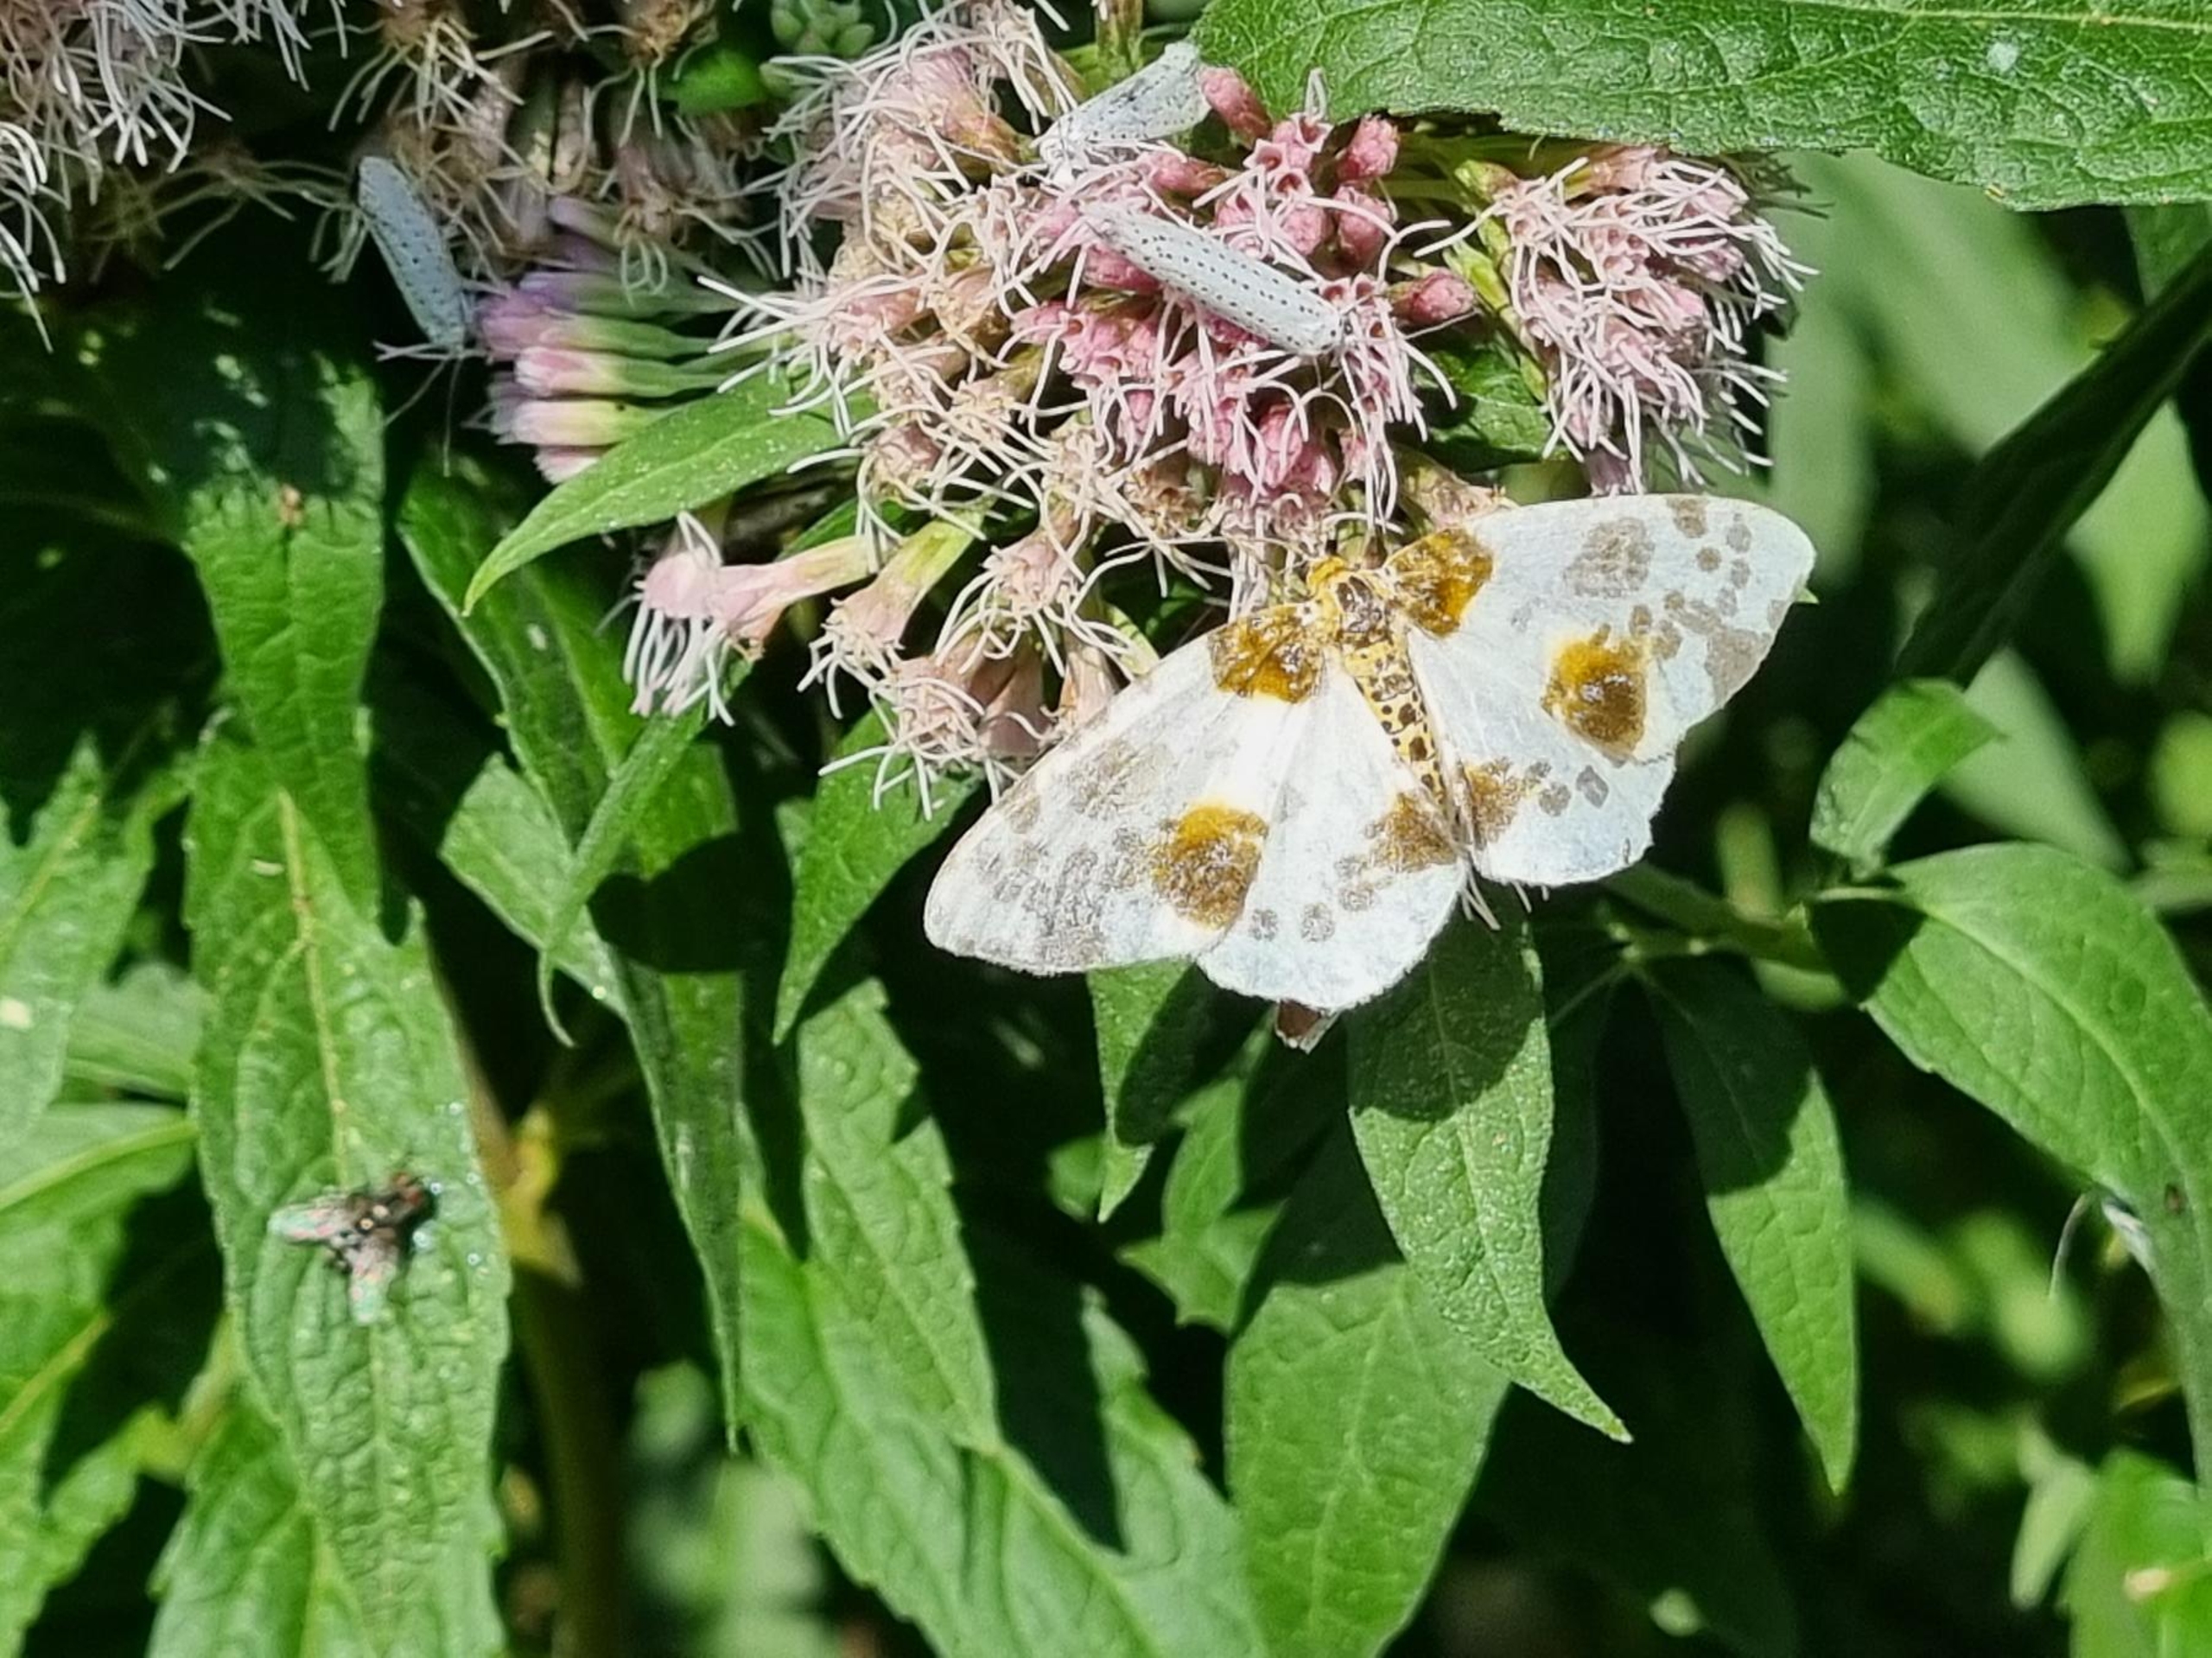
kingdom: Animalia
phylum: Arthropoda
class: Insecta
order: Lepidoptera
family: Geometridae
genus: Abraxas
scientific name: Abraxas sylvata
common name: Elmemåler
